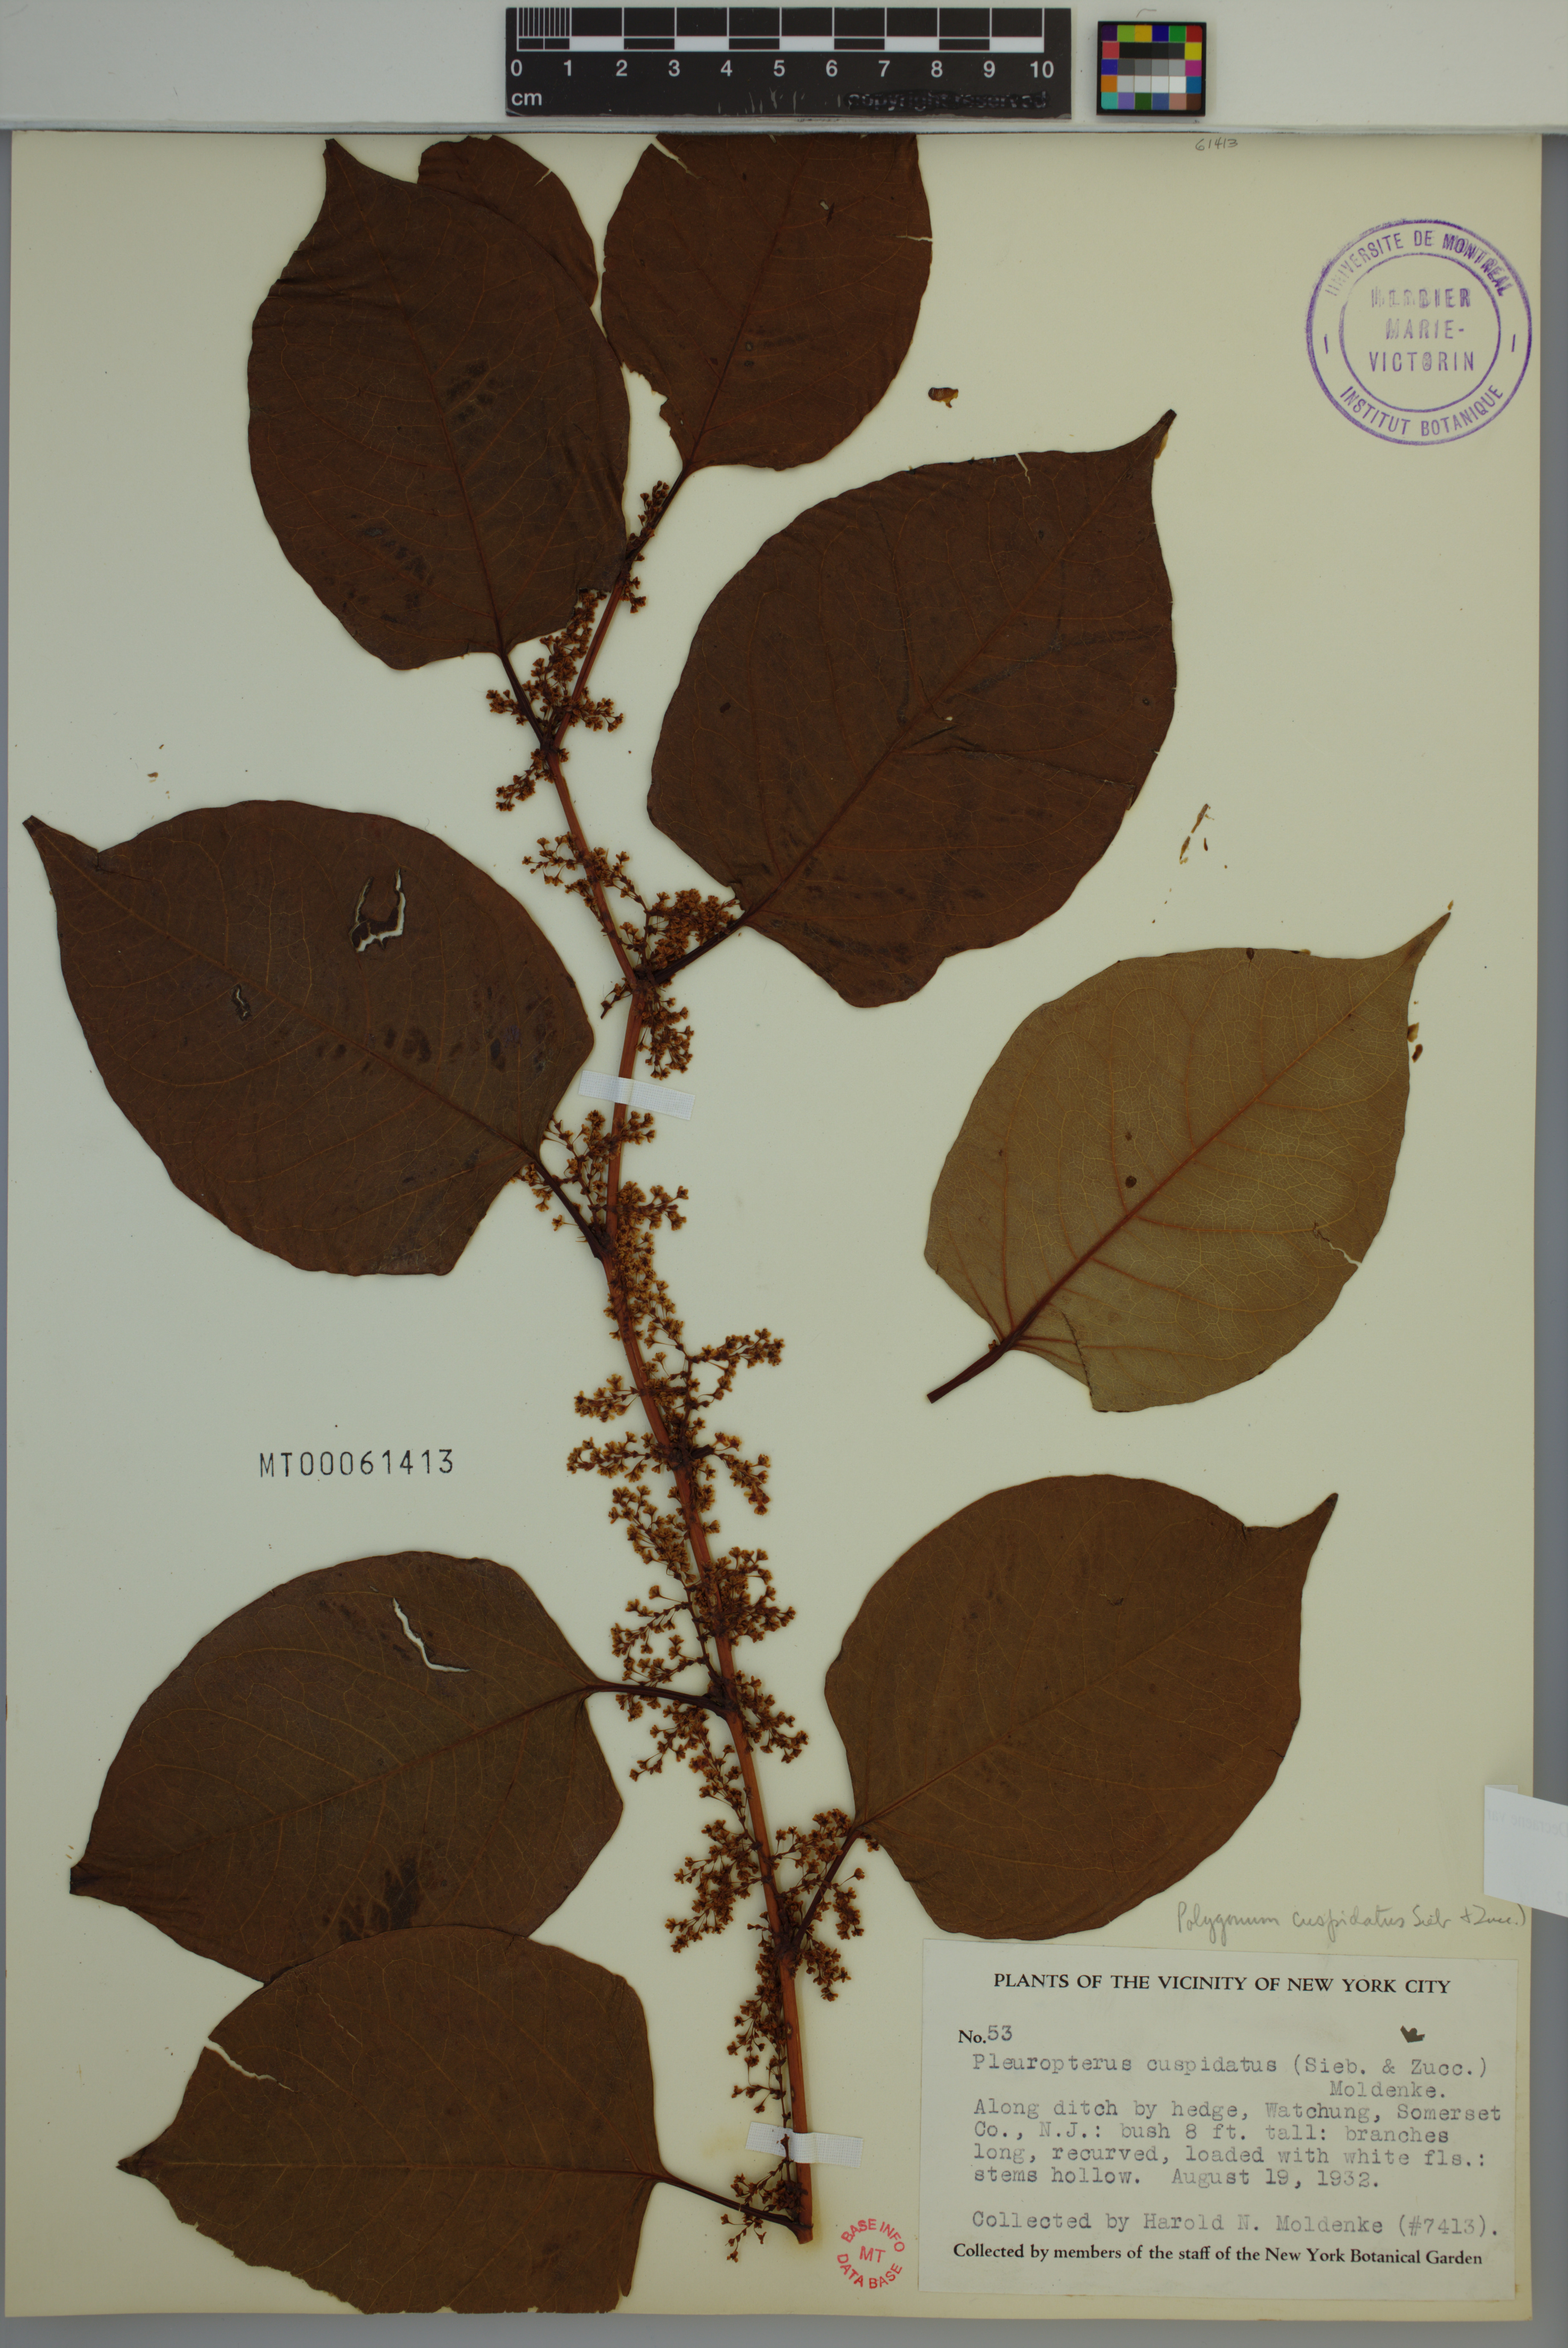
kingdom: Plantae
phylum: Tracheophyta
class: Magnoliopsida
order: Caryophyllales
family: Polygonaceae
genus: Reynoutria
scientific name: Reynoutria japonica
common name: Japanese knotweed
